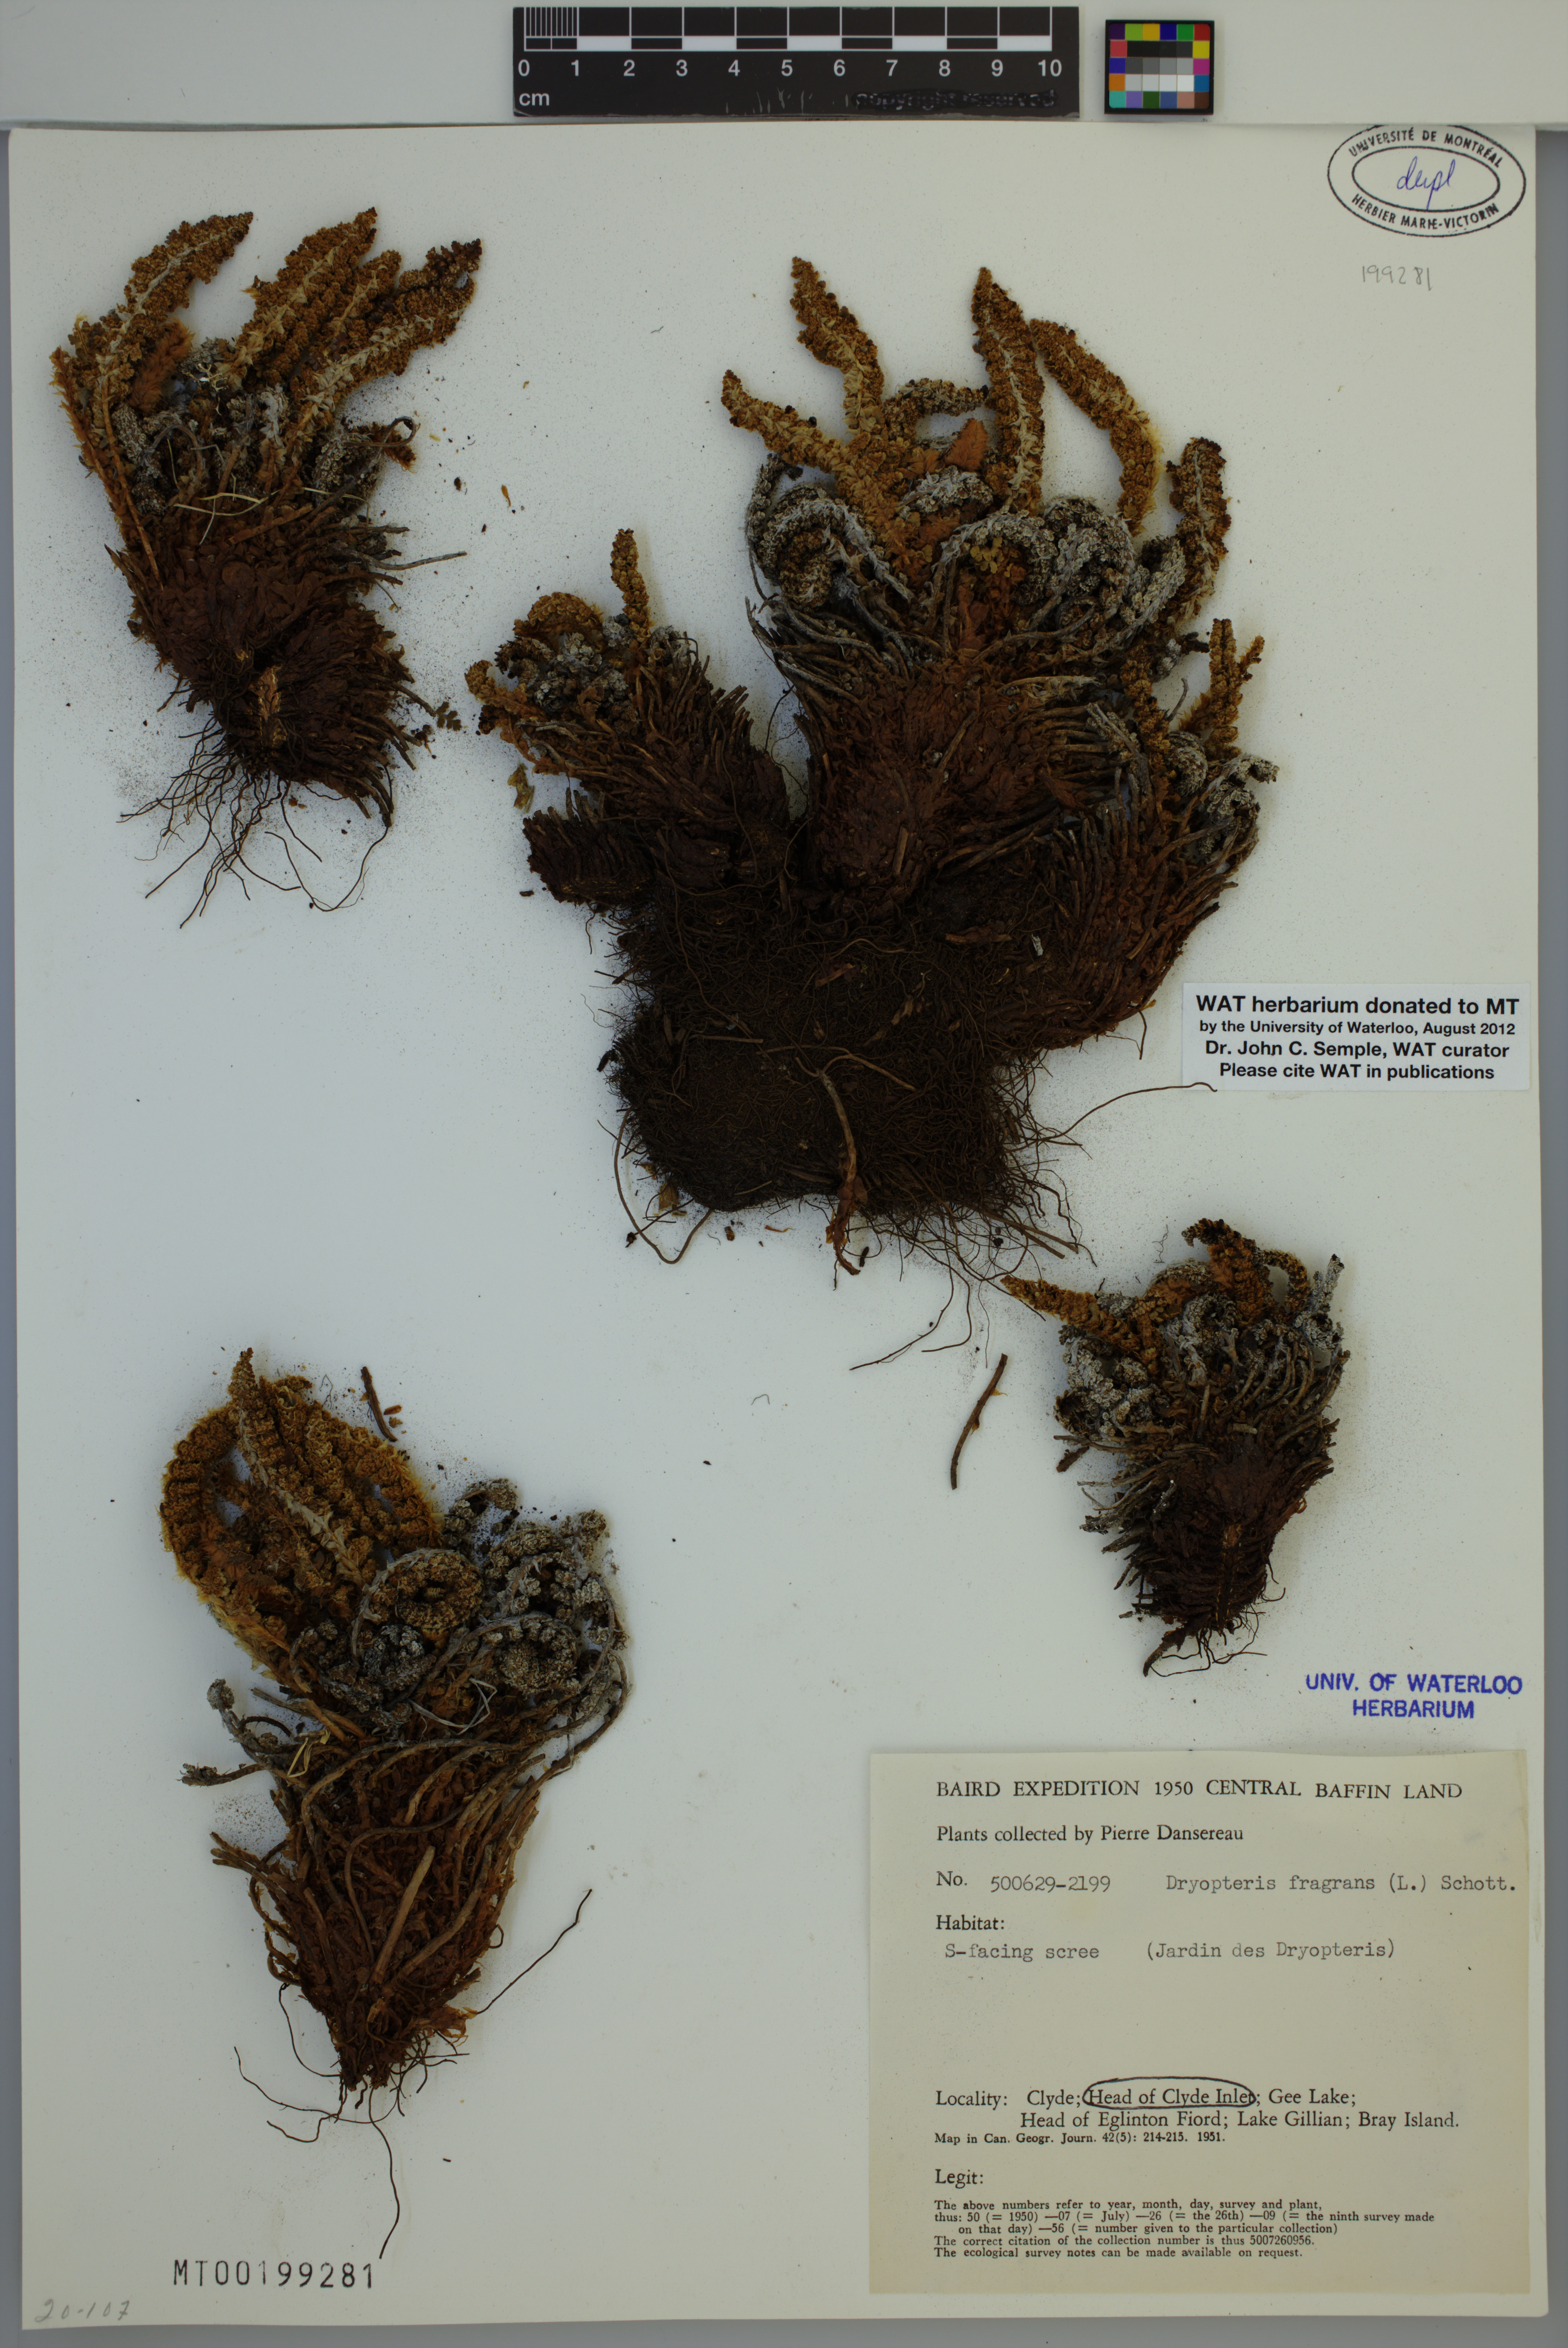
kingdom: Plantae
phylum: Tracheophyta
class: Polypodiopsida
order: Polypodiales
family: Dryopteridaceae
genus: Dryopteris
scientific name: Dryopteris fragrans
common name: Fragrant wood fern
